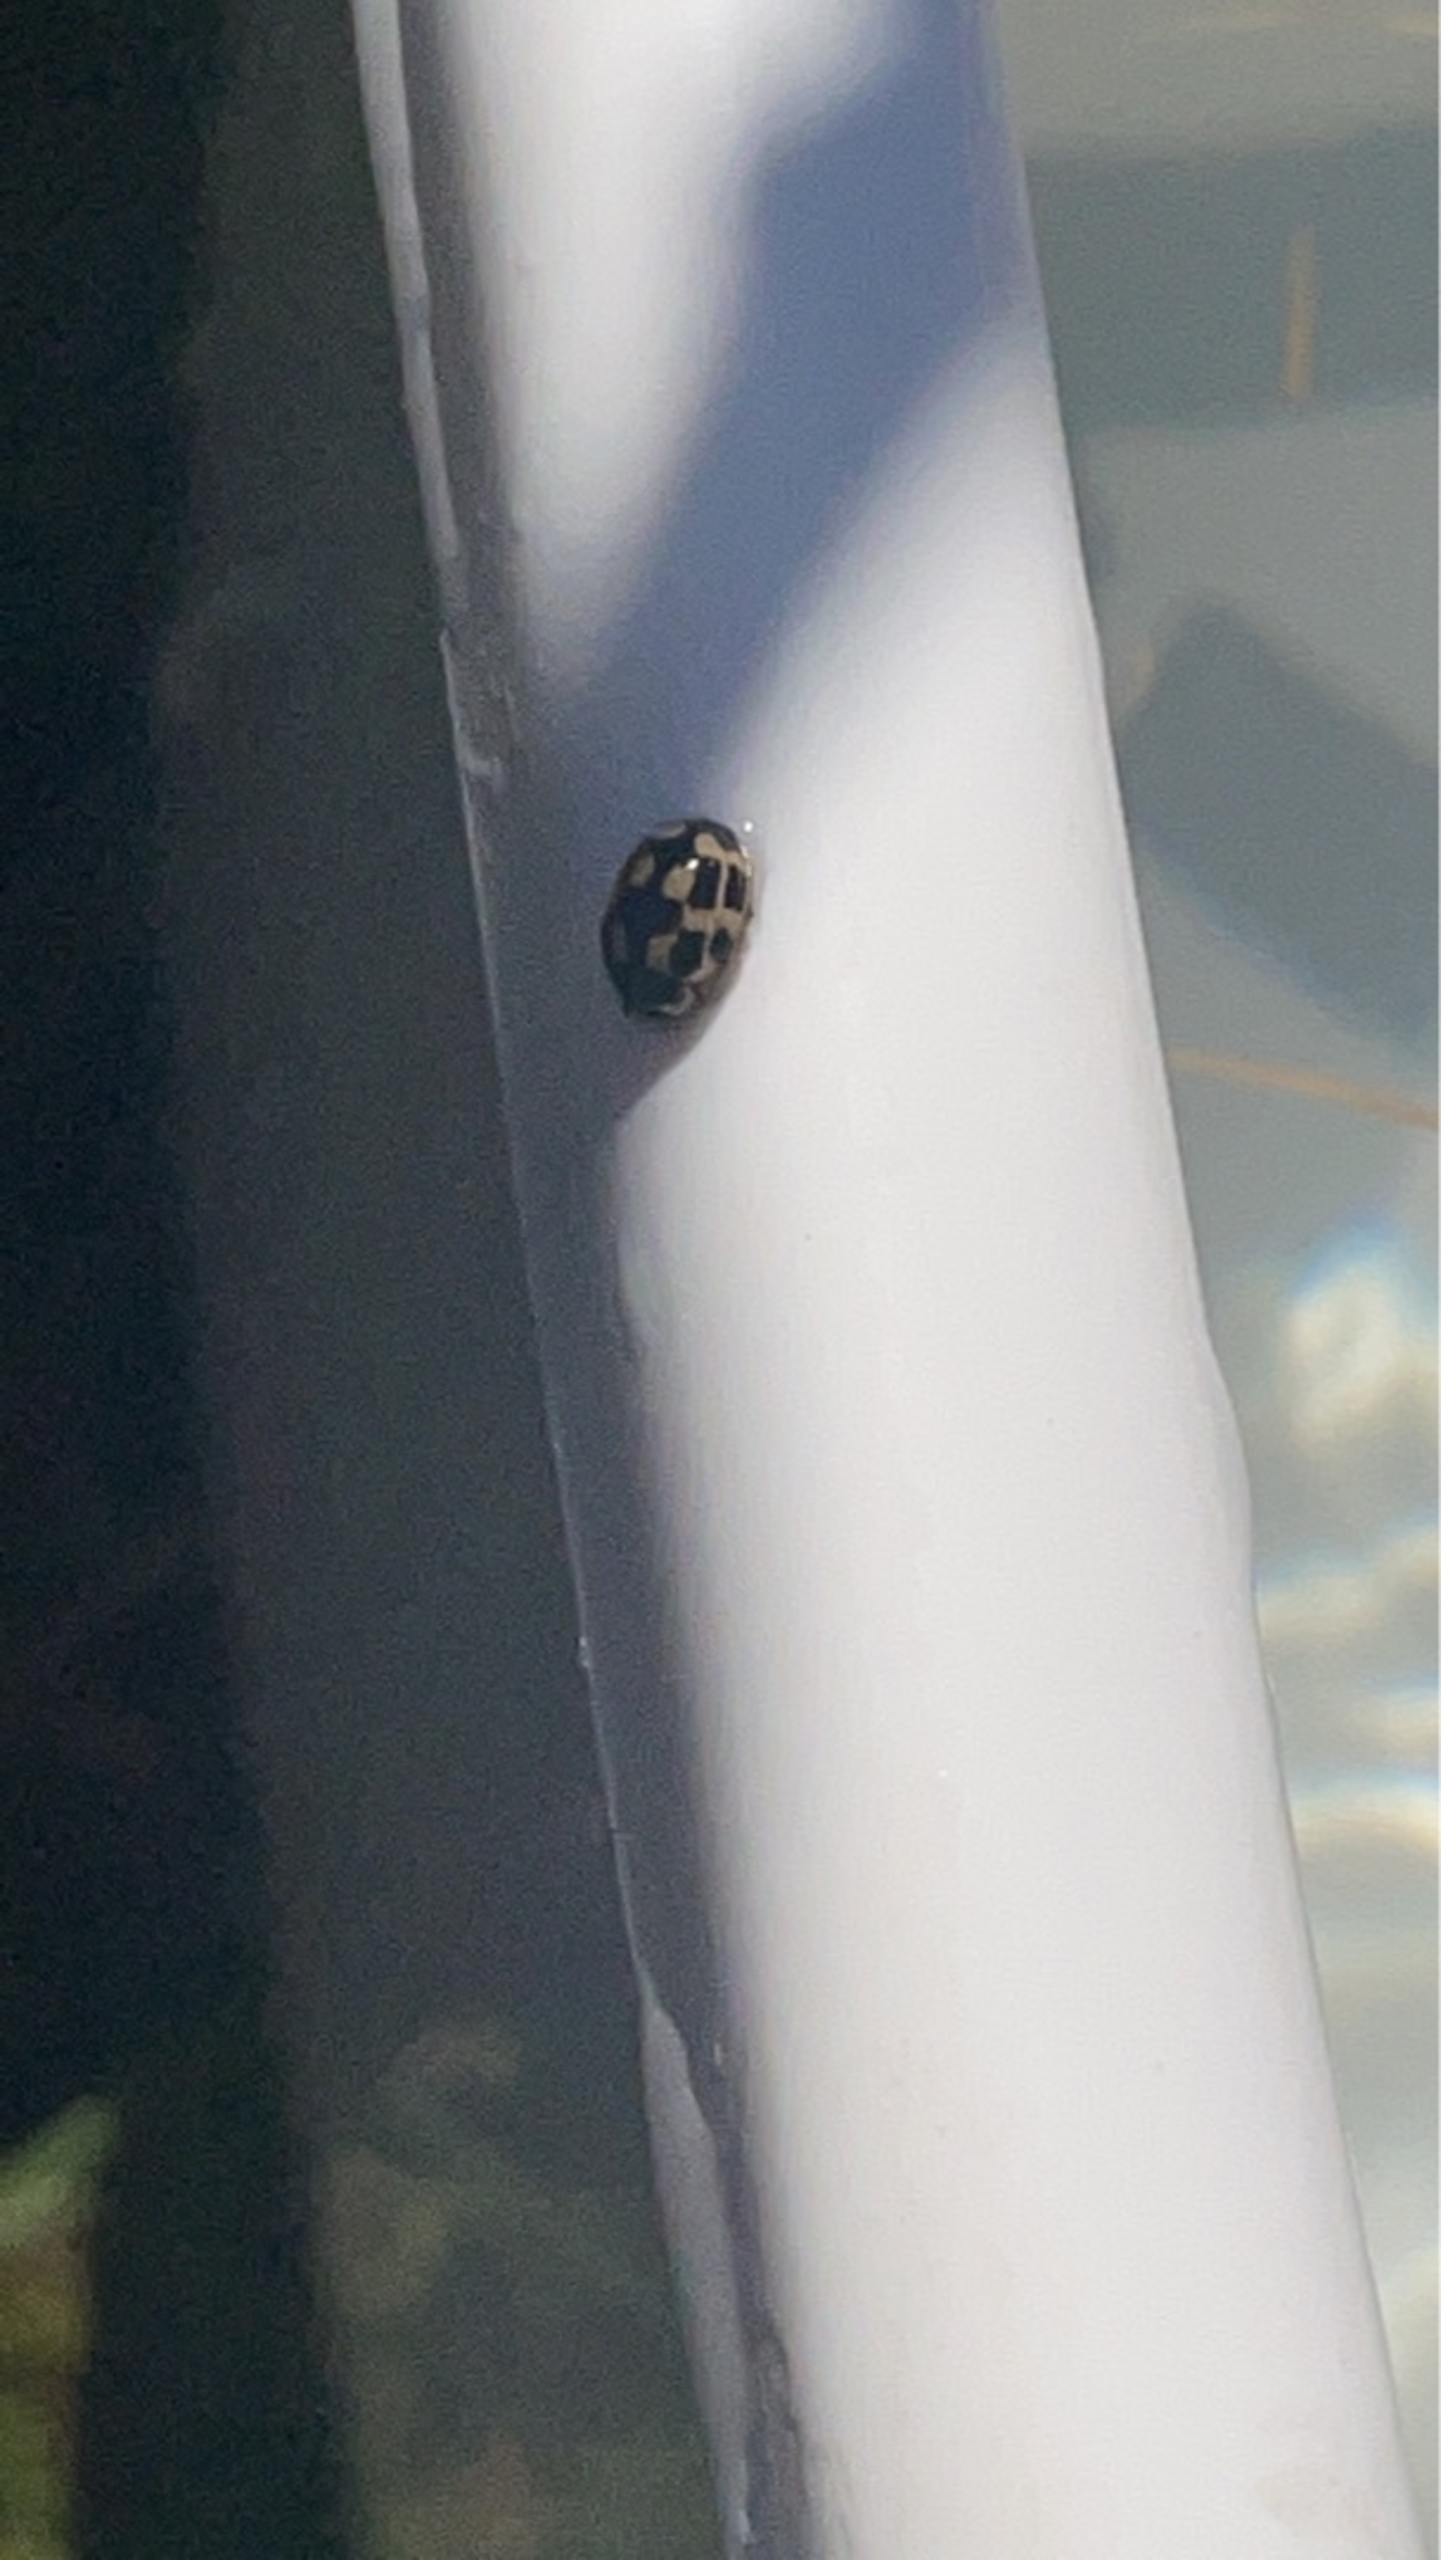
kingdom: Animalia
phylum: Arthropoda
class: Insecta
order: Coleoptera
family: Coccinellidae
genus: Propylaea
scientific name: Propylaea quatuordecimpunctata
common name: Skakbræt
